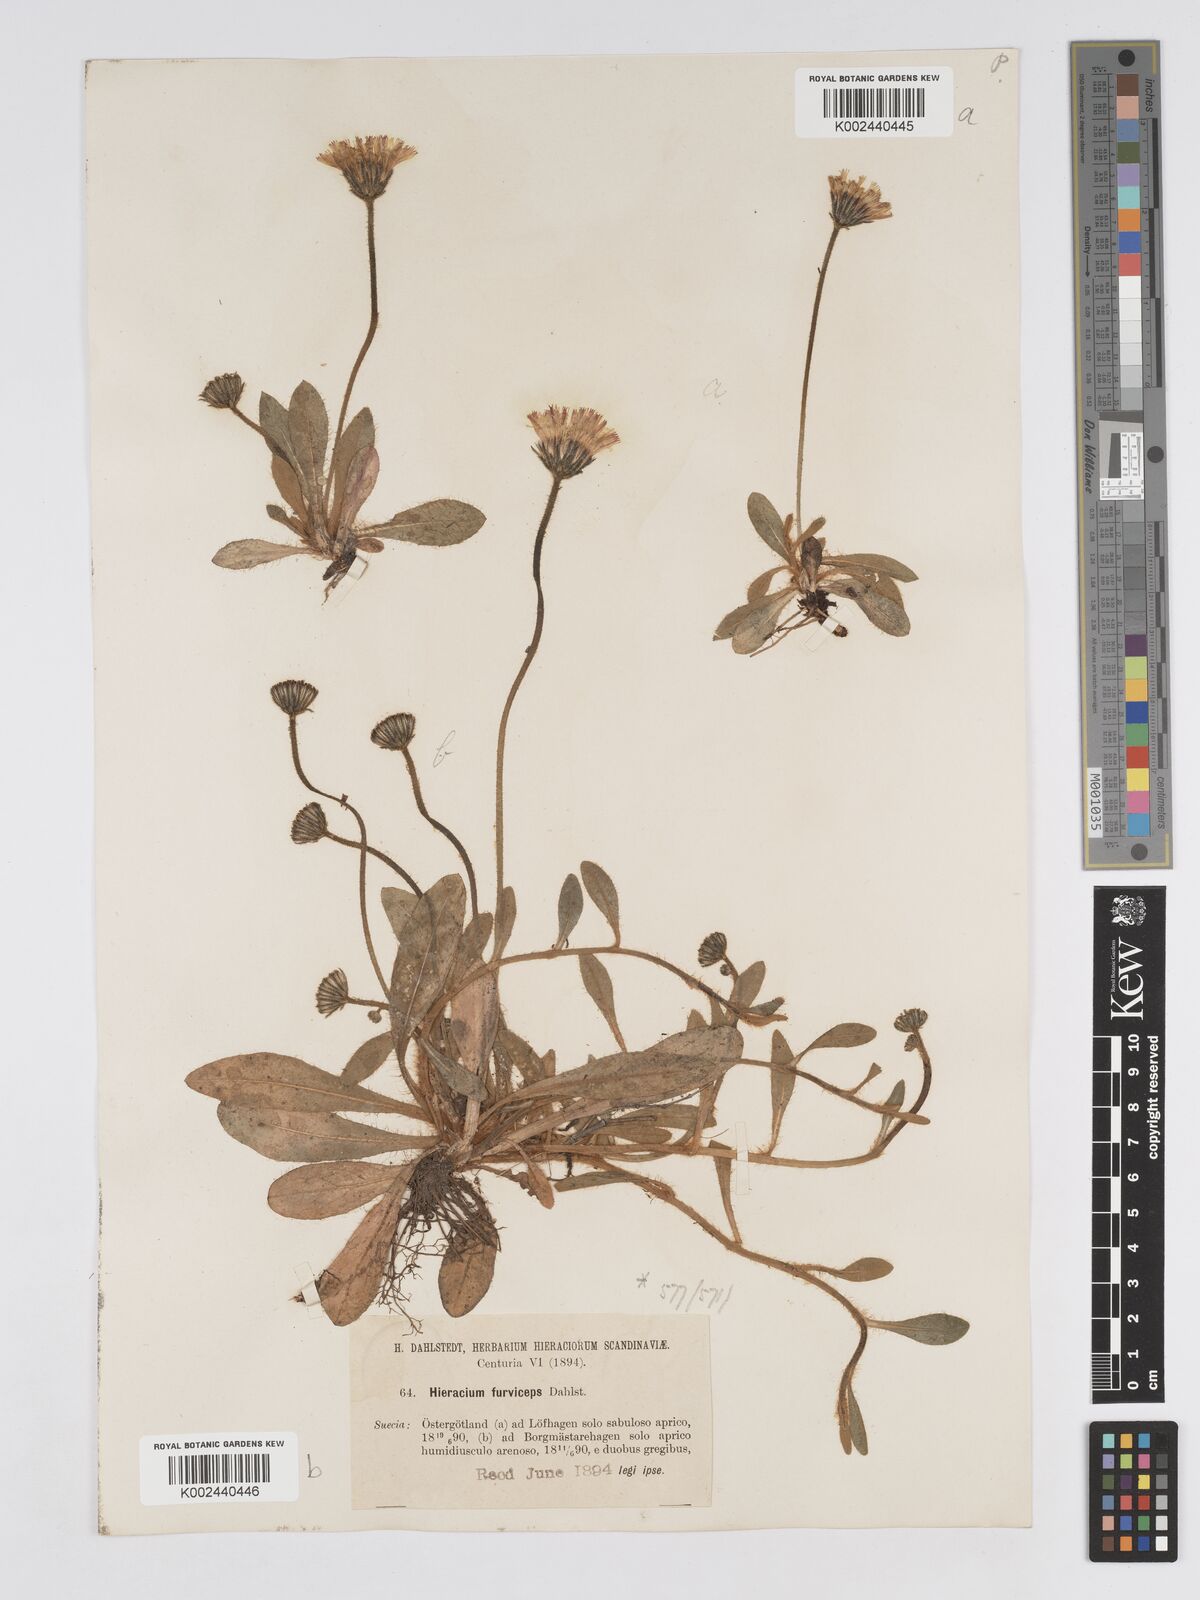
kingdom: Plantae
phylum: Tracheophyta
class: Magnoliopsida
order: Asterales
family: Asteraceae
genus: Pilosella
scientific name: Pilosella officinarum
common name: Mouse-ear hawkweed
